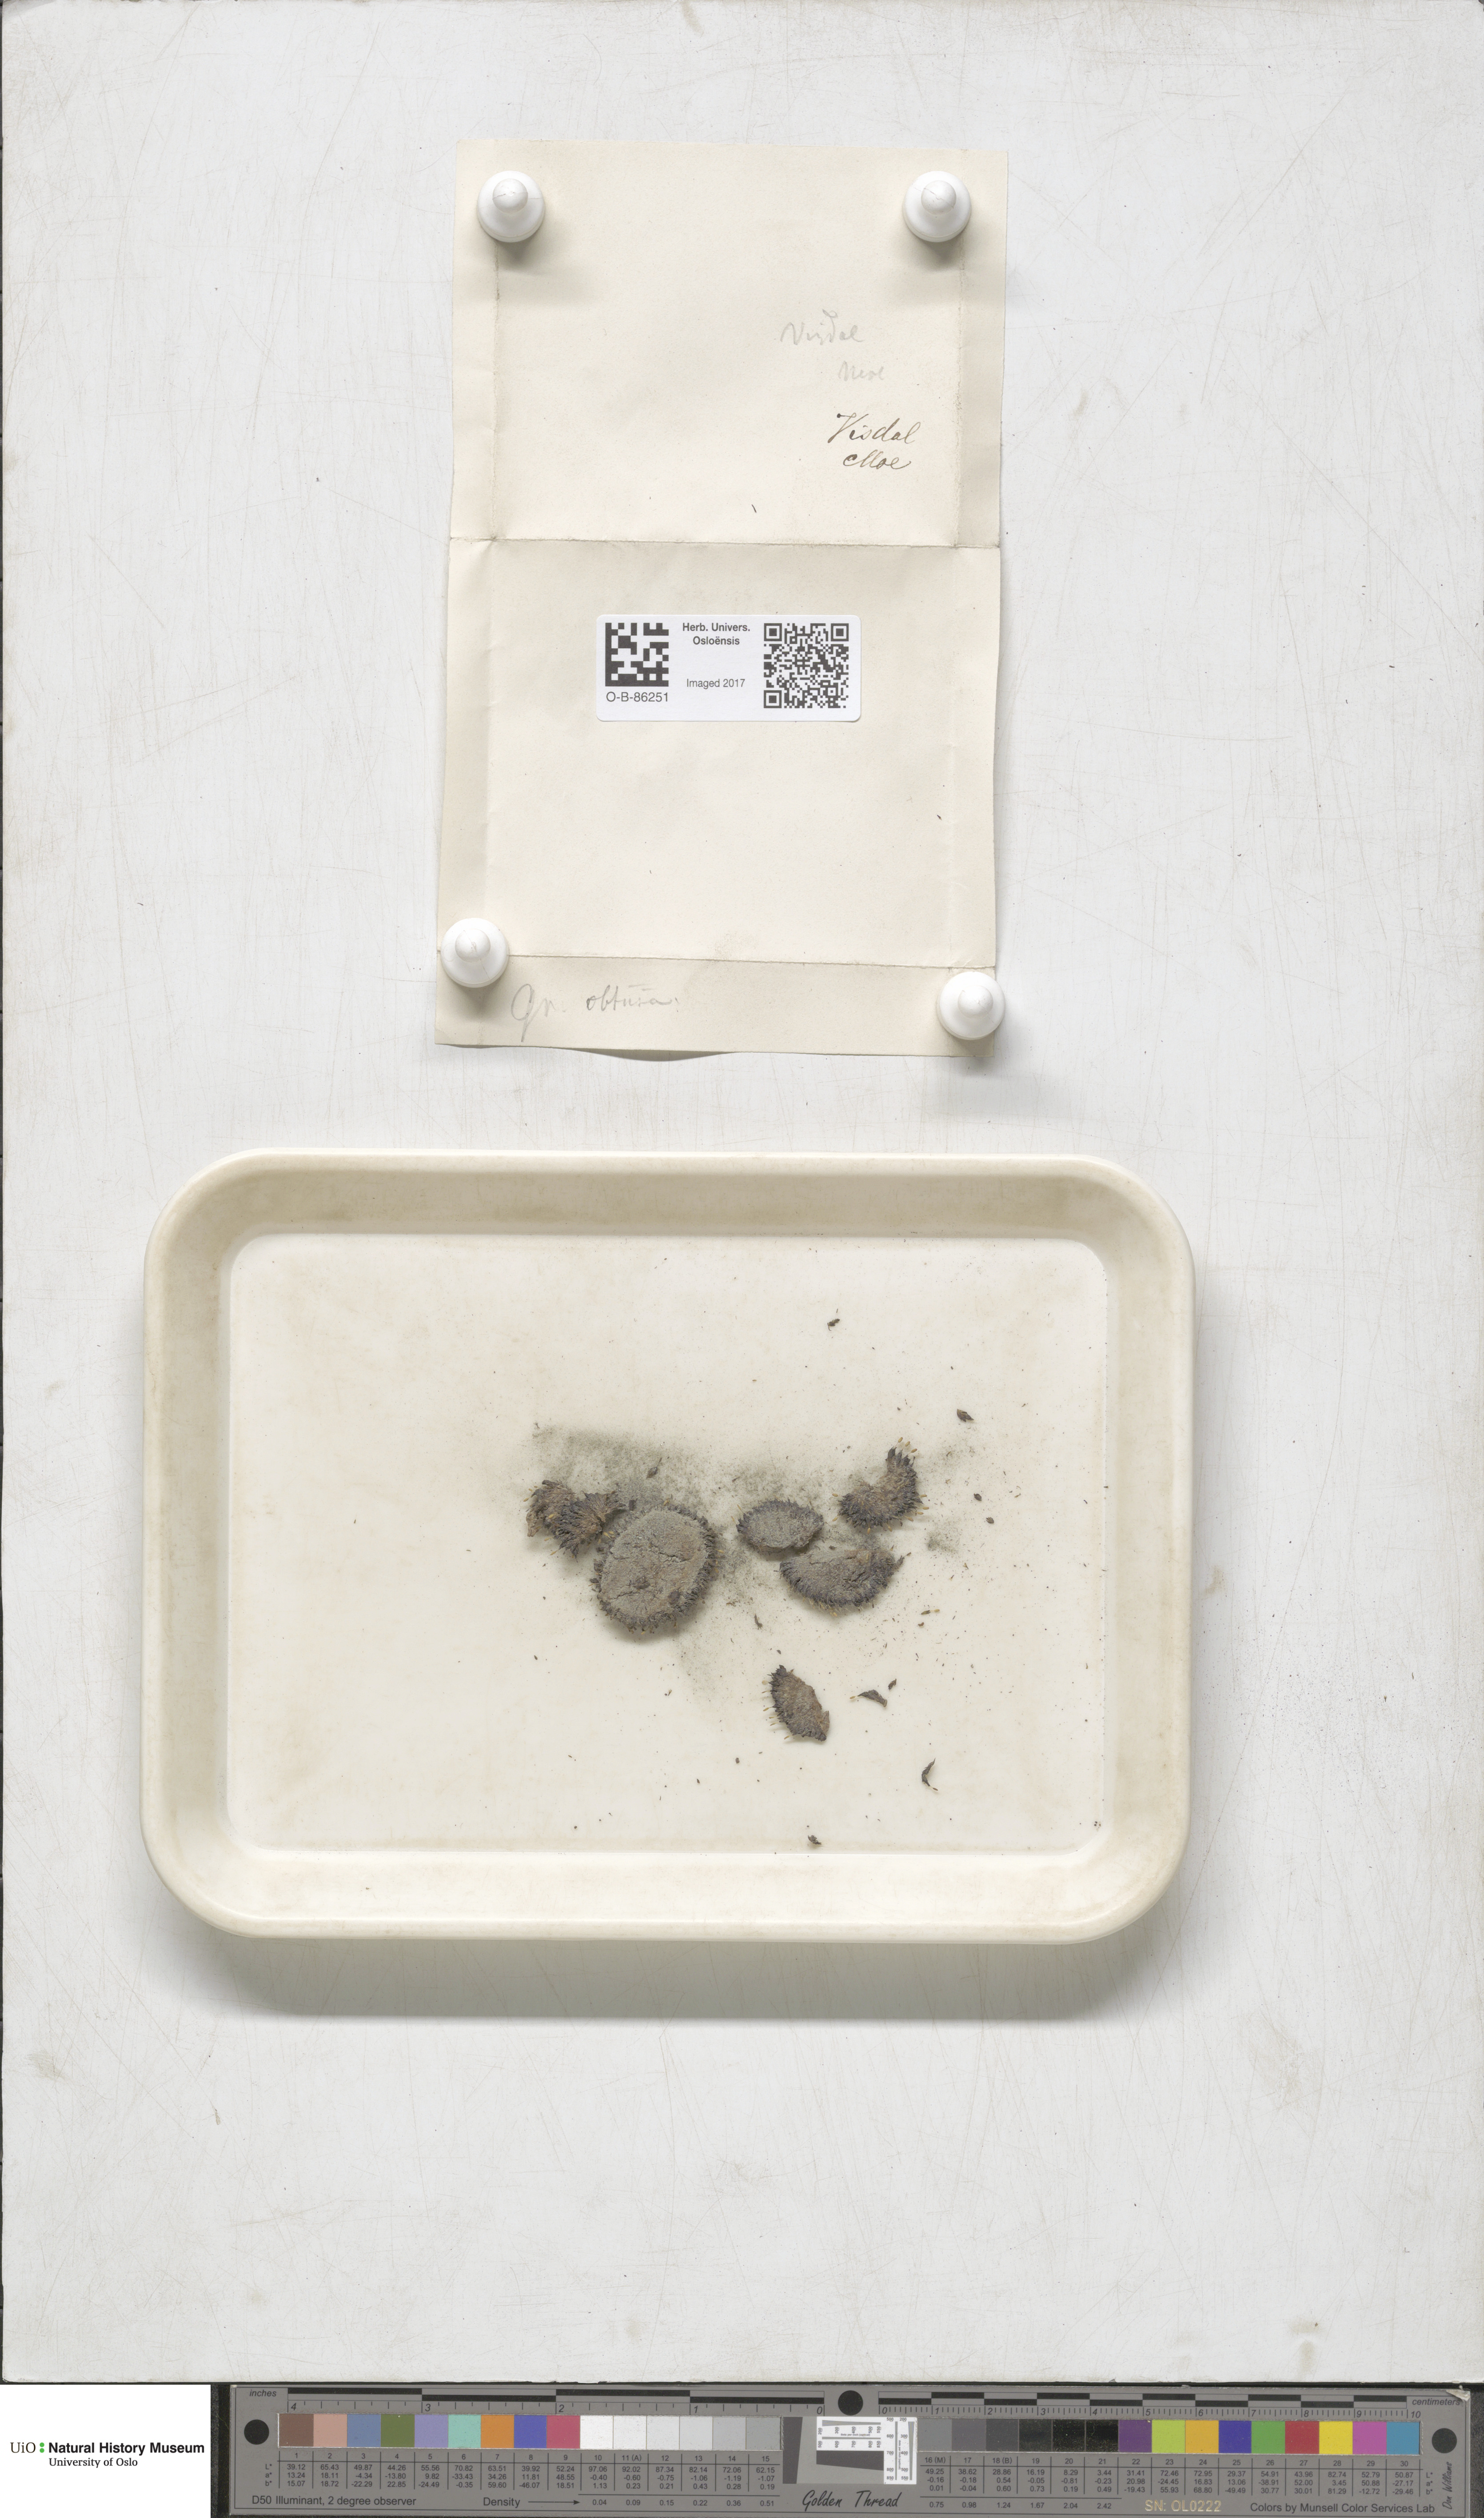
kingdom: Plantae
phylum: Bryophyta
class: Bryopsida
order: Grimmiales
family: Grimmiaceae
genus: Grimmia
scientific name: Grimmia donniana
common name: Donn's grimmia
